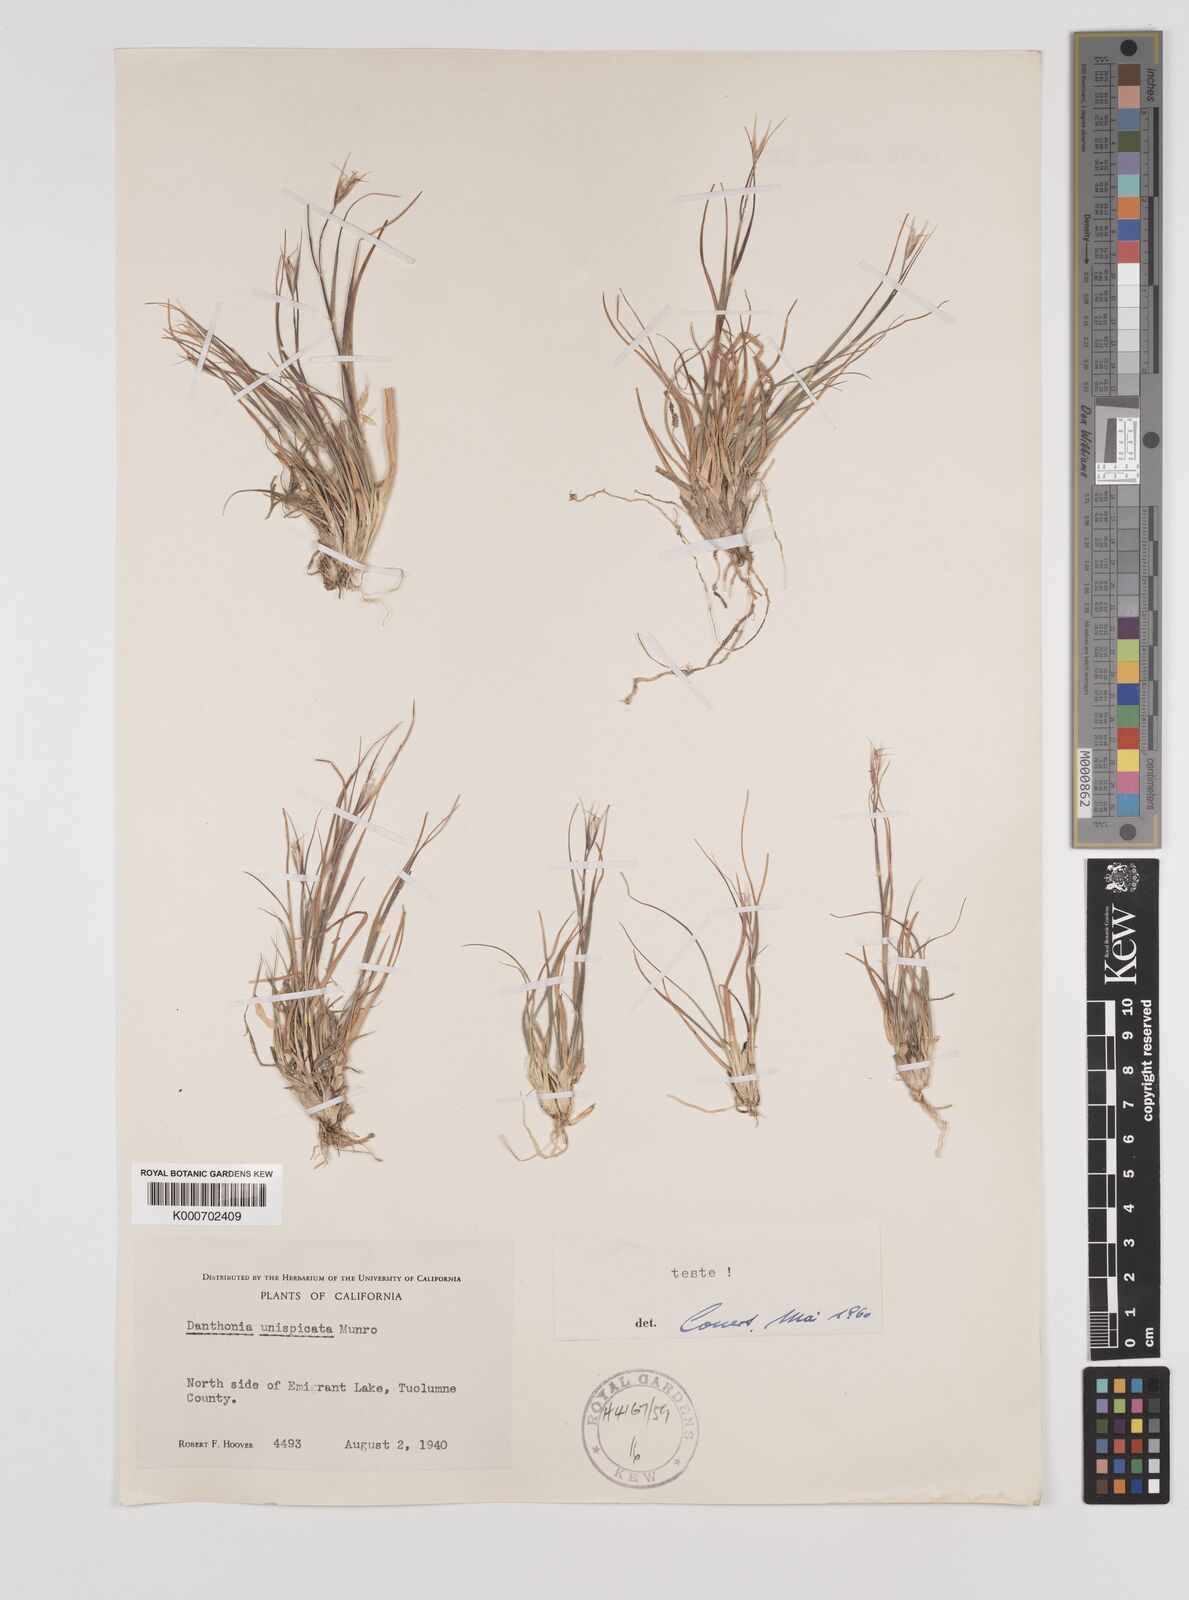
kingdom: Plantae
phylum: Tracheophyta
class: Liliopsida
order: Poales
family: Poaceae
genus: Danthonia
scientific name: Danthonia unispicata
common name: Few-flowered oatgrass
